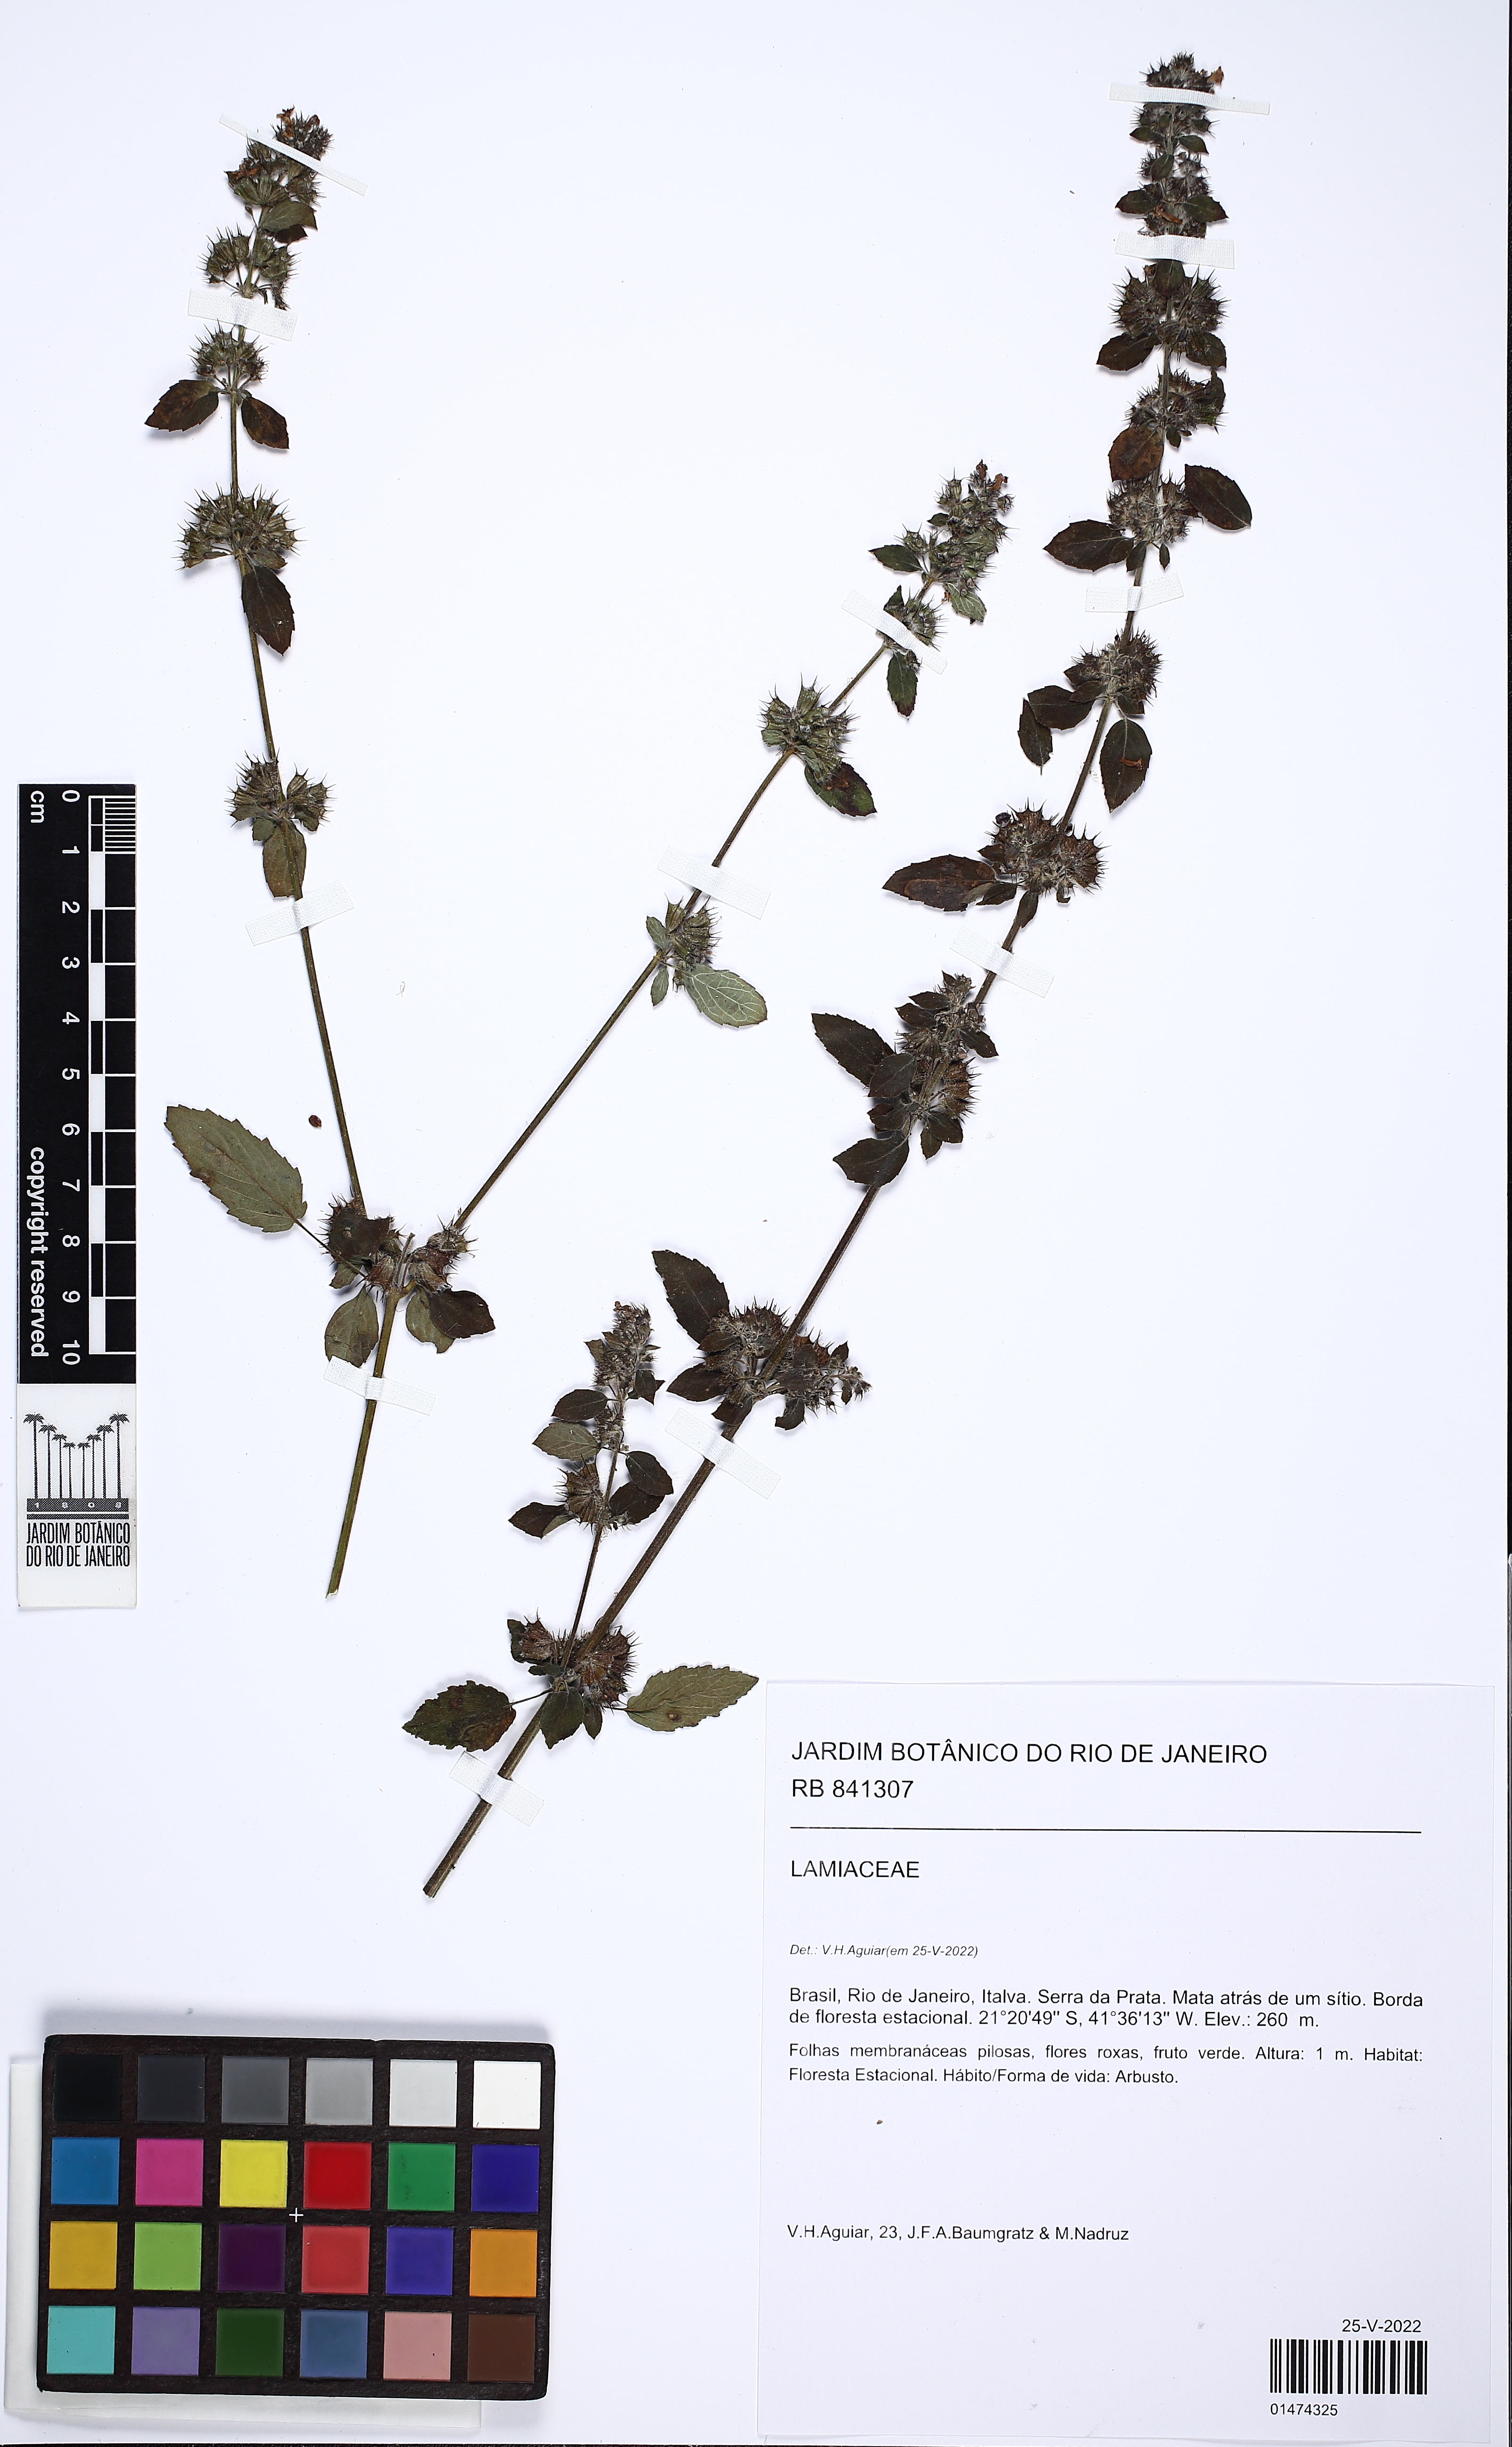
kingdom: Plantae
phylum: Tracheophyta
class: Magnoliopsida
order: Lamiales
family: Lamiaceae
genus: Mesosphaerum
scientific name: Mesosphaerum suaveolens
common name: Pignut
